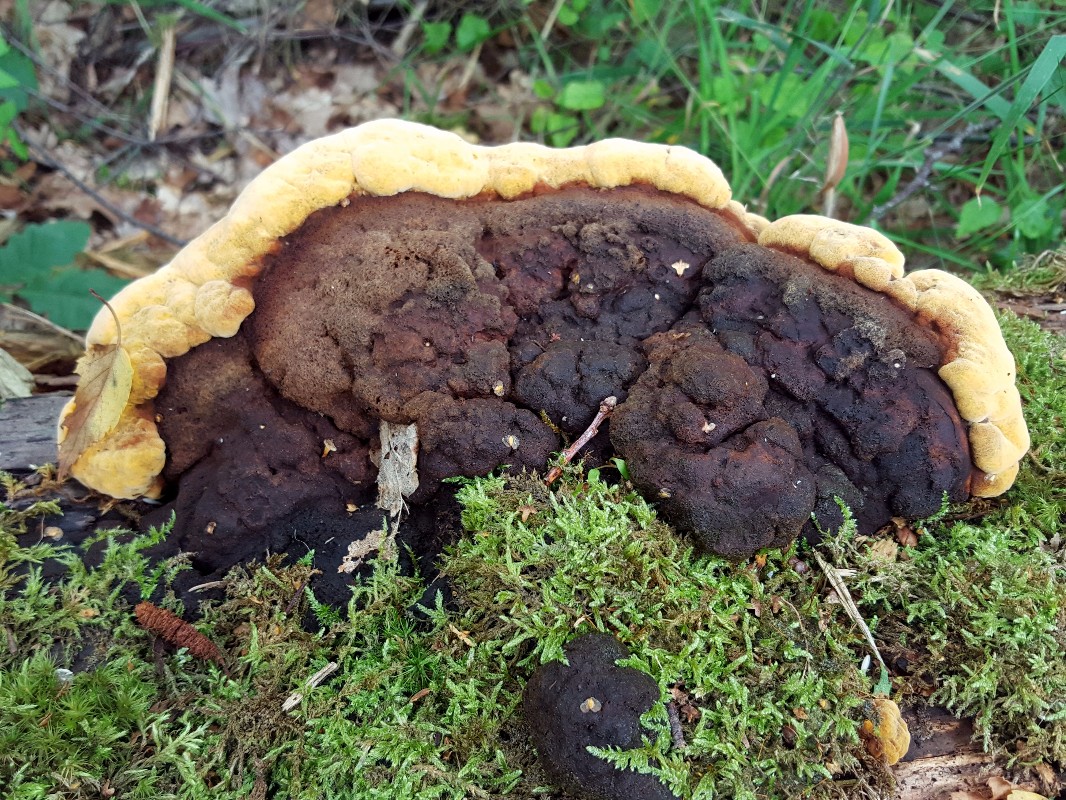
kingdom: Fungi
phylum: Basidiomycota
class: Agaricomycetes
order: Gloeophyllales
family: Gloeophyllaceae
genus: Gloeophyllum
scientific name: Gloeophyllum odoratum
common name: duftende korkhat
